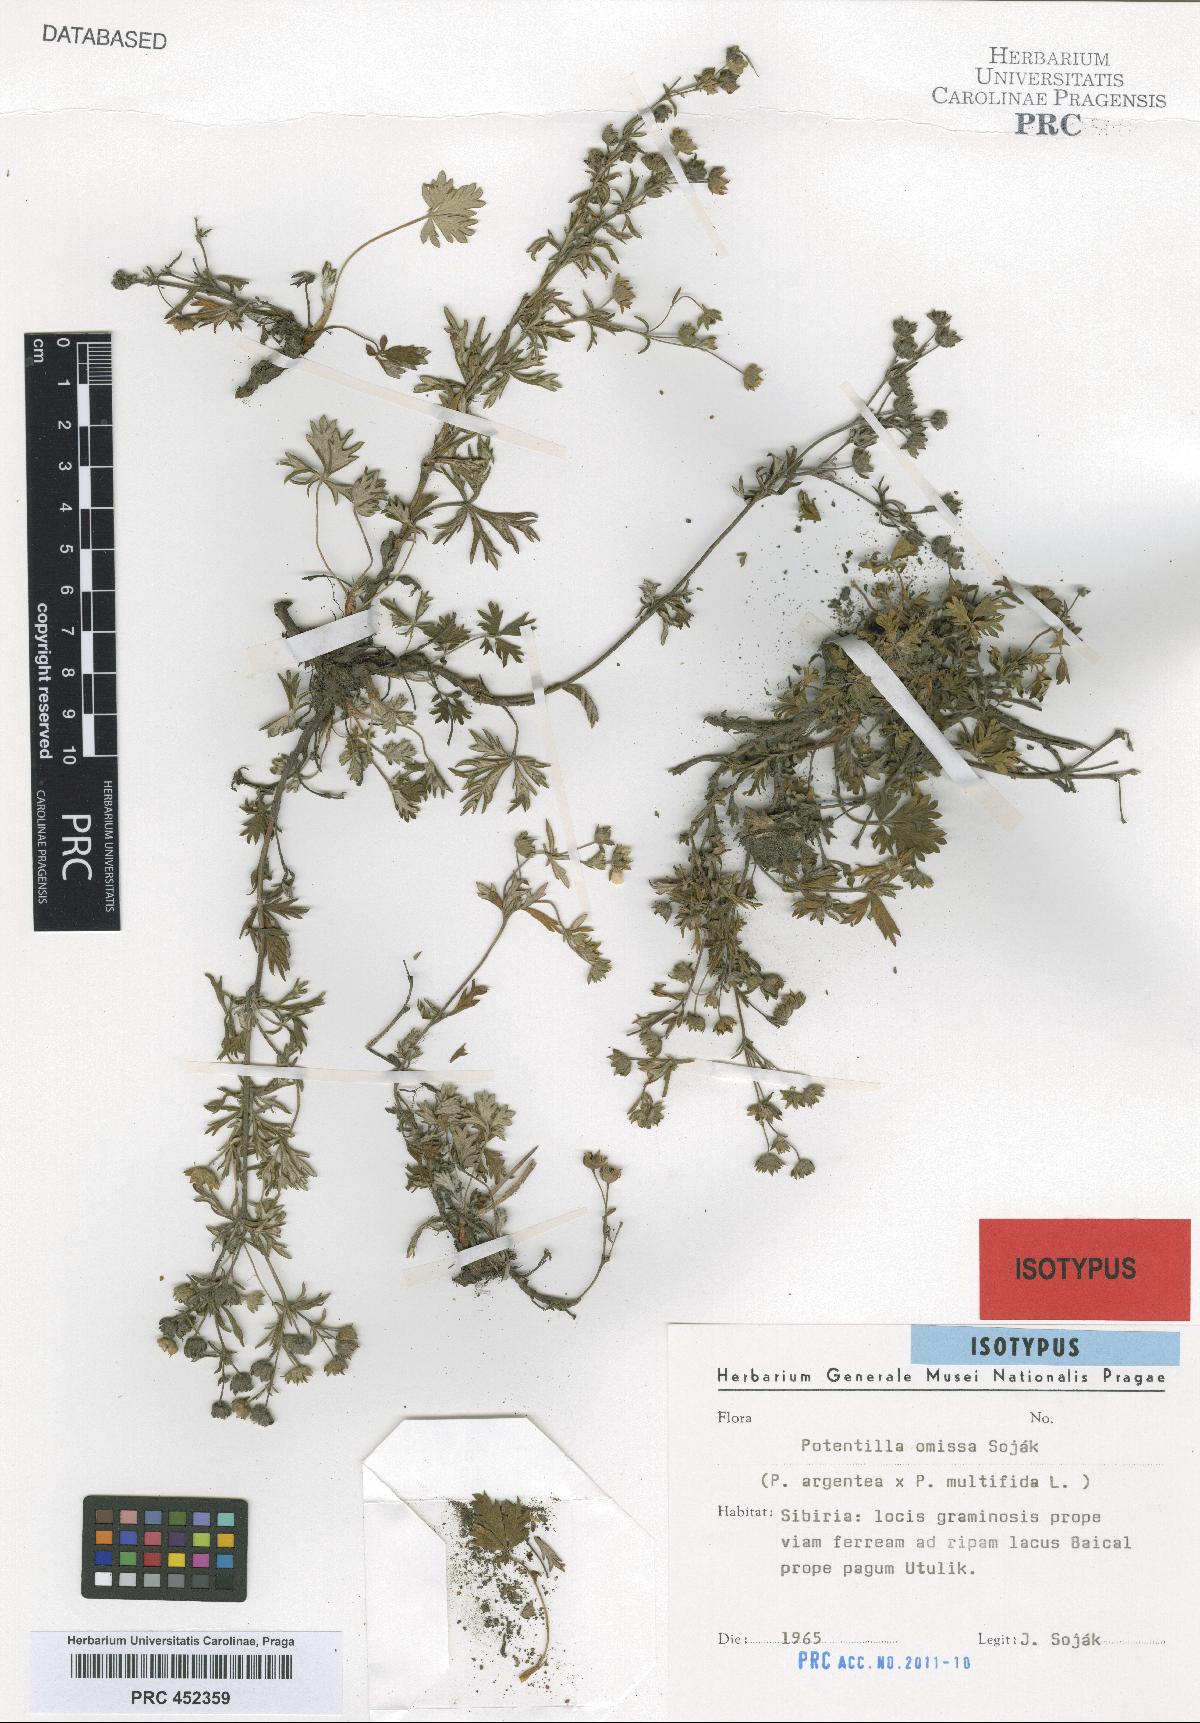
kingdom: Plantae
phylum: Tracheophyta
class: Magnoliopsida
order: Rosales
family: Rosaceae
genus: Potentilla
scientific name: Potentilla omissa
